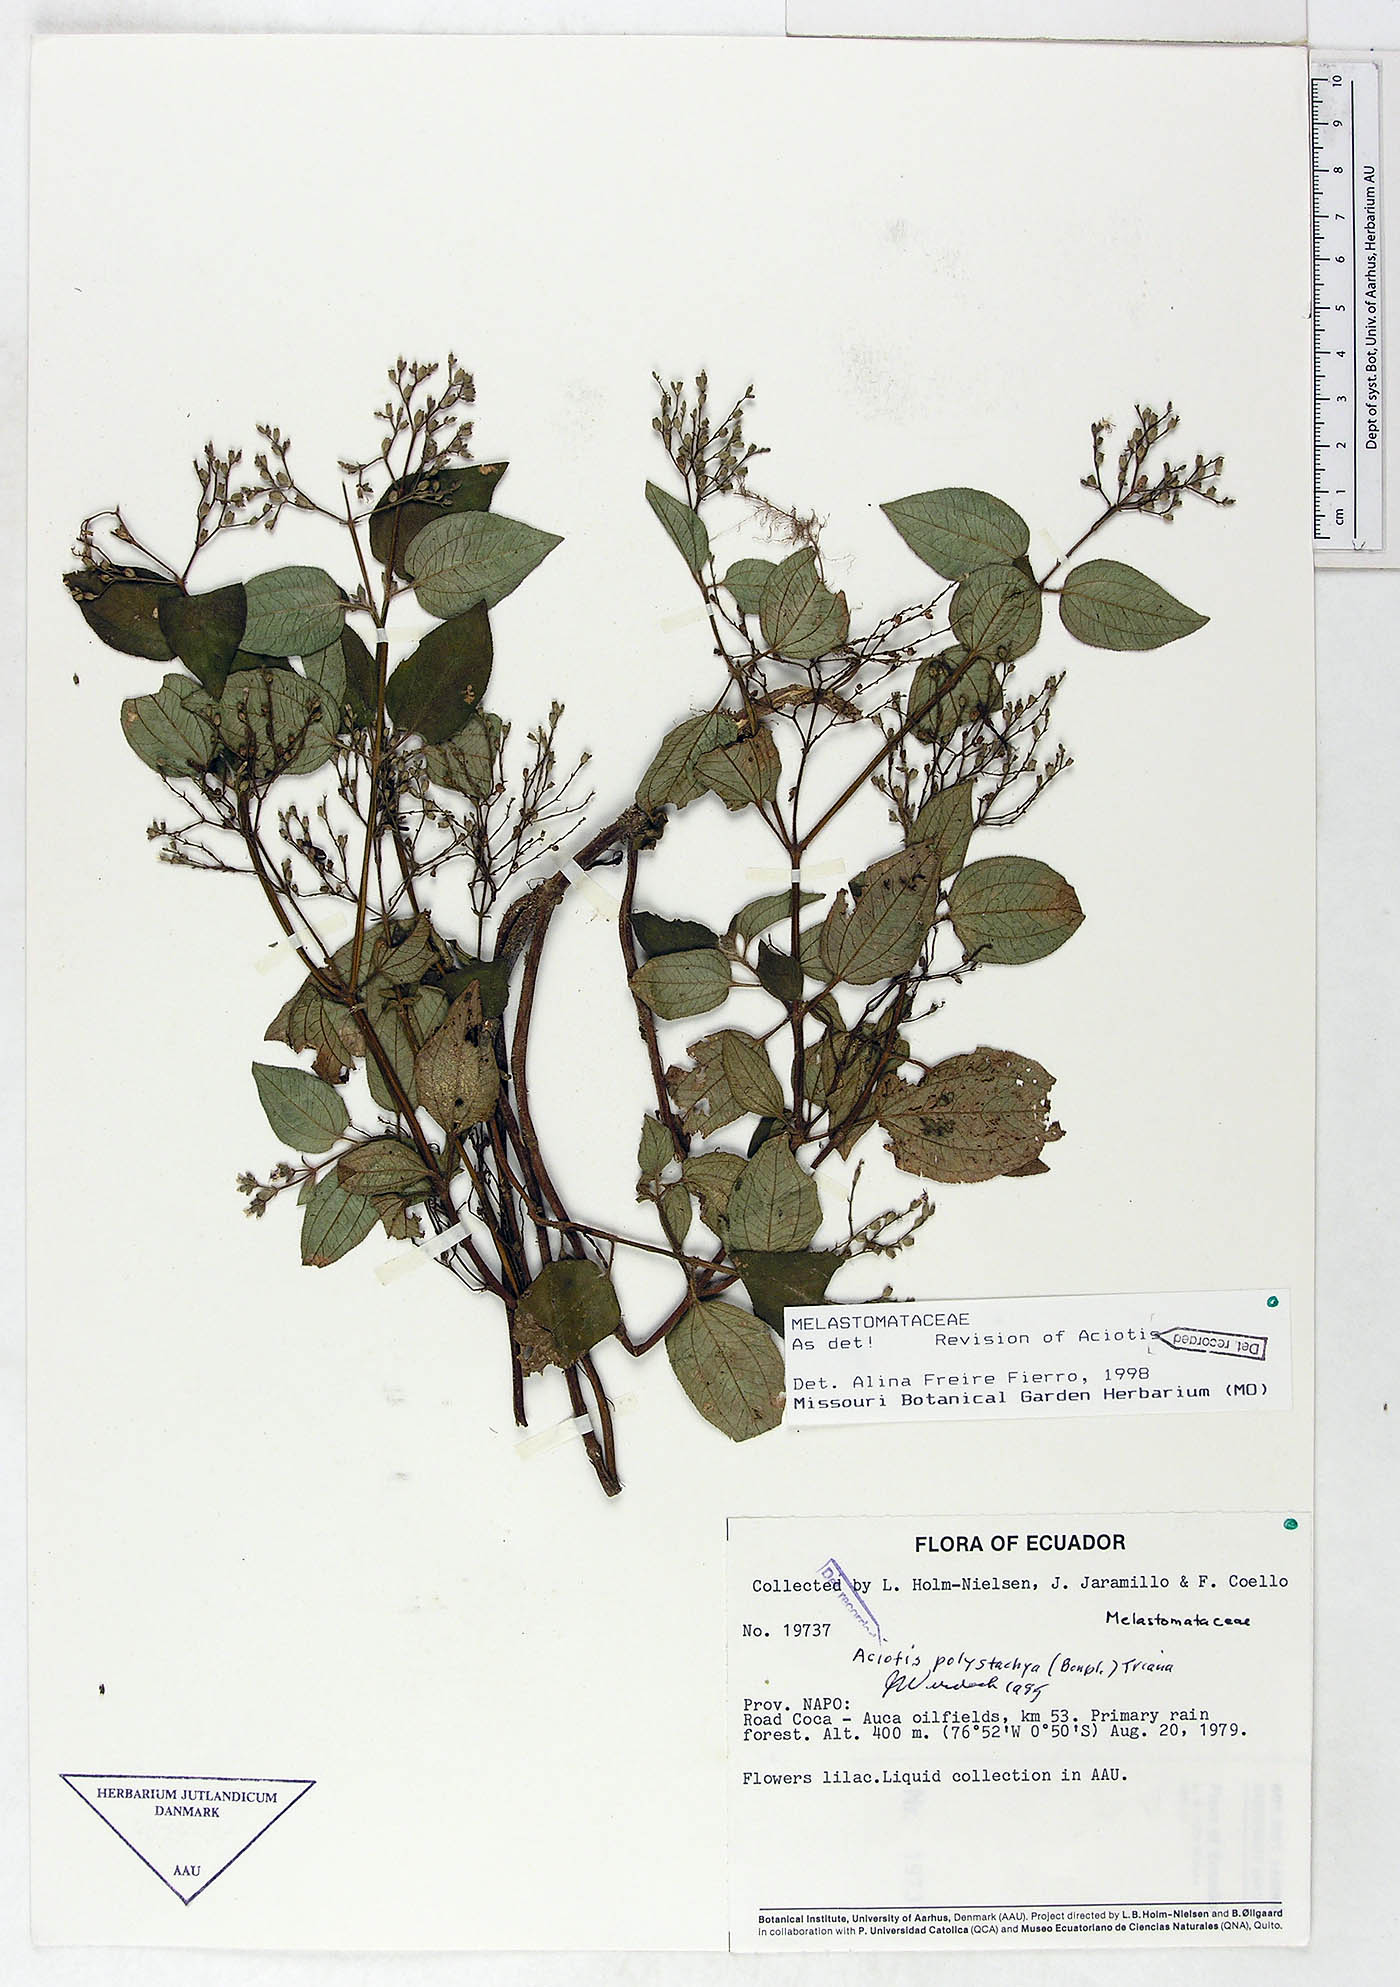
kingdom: Plantae
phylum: Tracheophyta
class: Magnoliopsida
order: Myrtales
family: Melastomataceae
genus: Aciotis
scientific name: Aciotis polystachya
